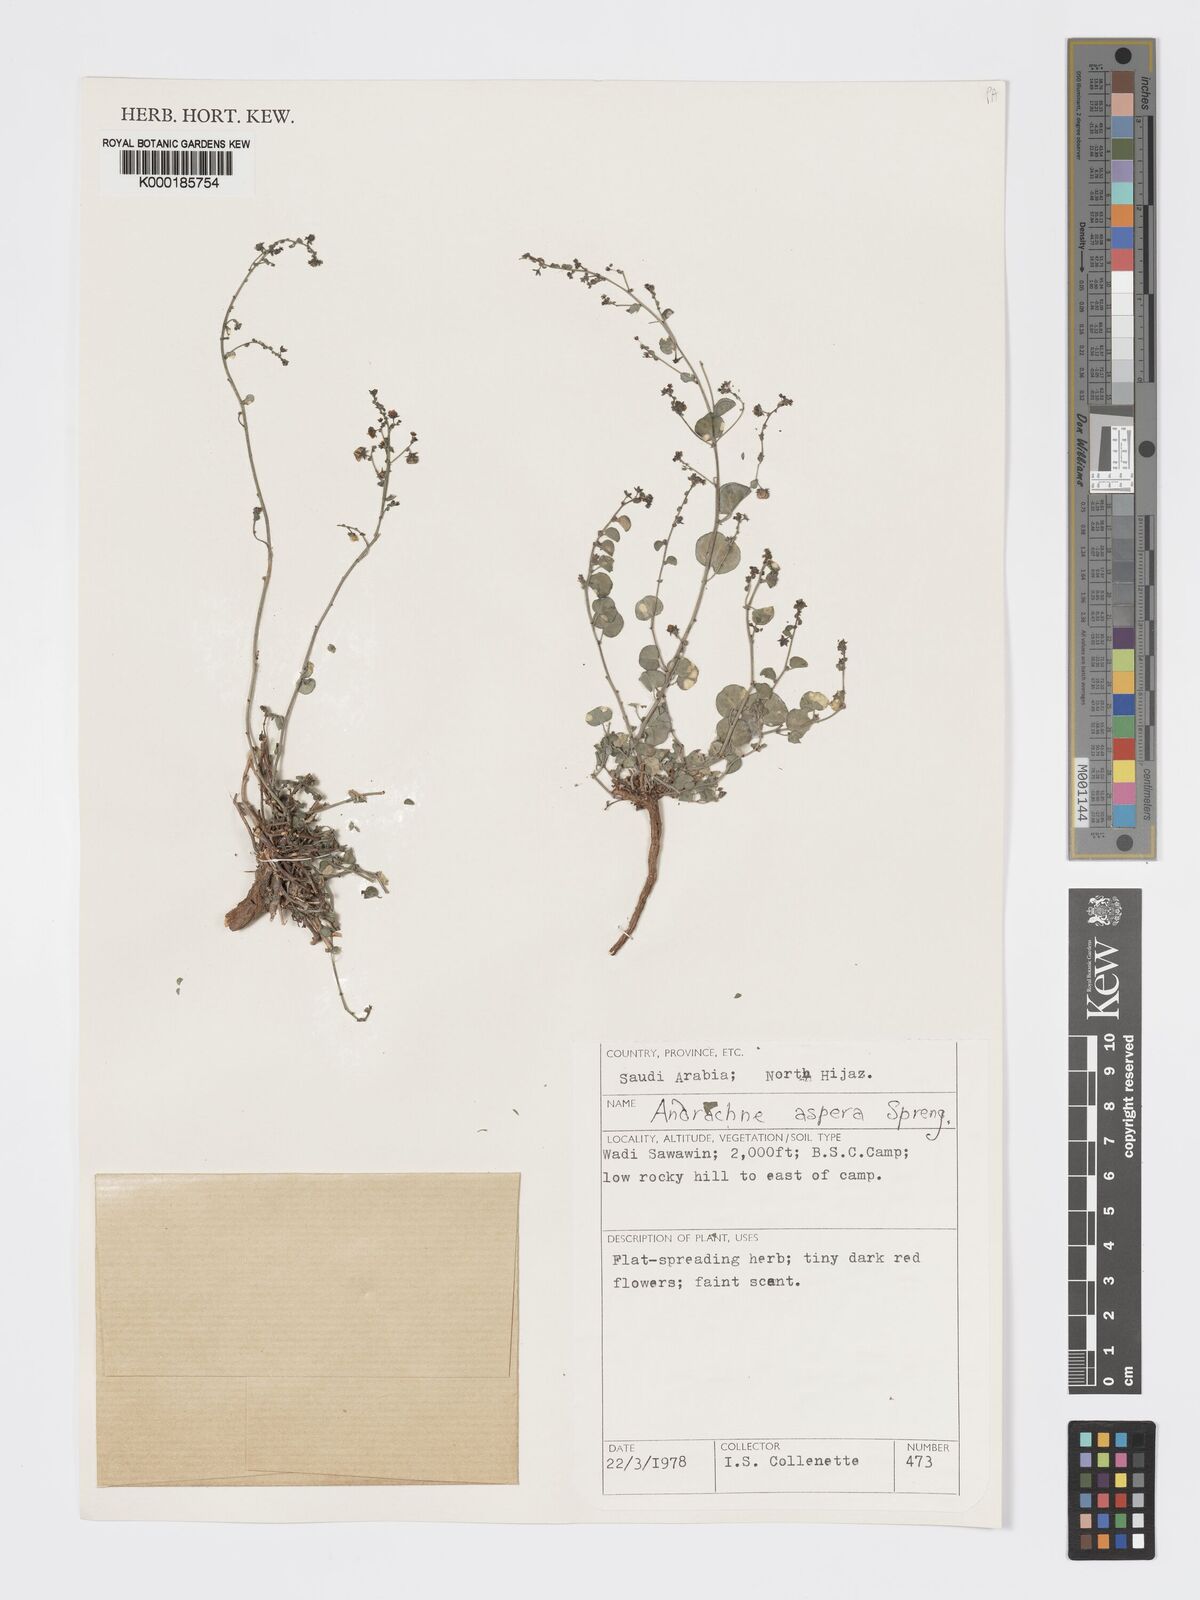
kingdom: Plantae
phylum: Tracheophyta
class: Magnoliopsida
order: Malpighiales
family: Phyllanthaceae
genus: Andrachne
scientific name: Andrachne aspera
